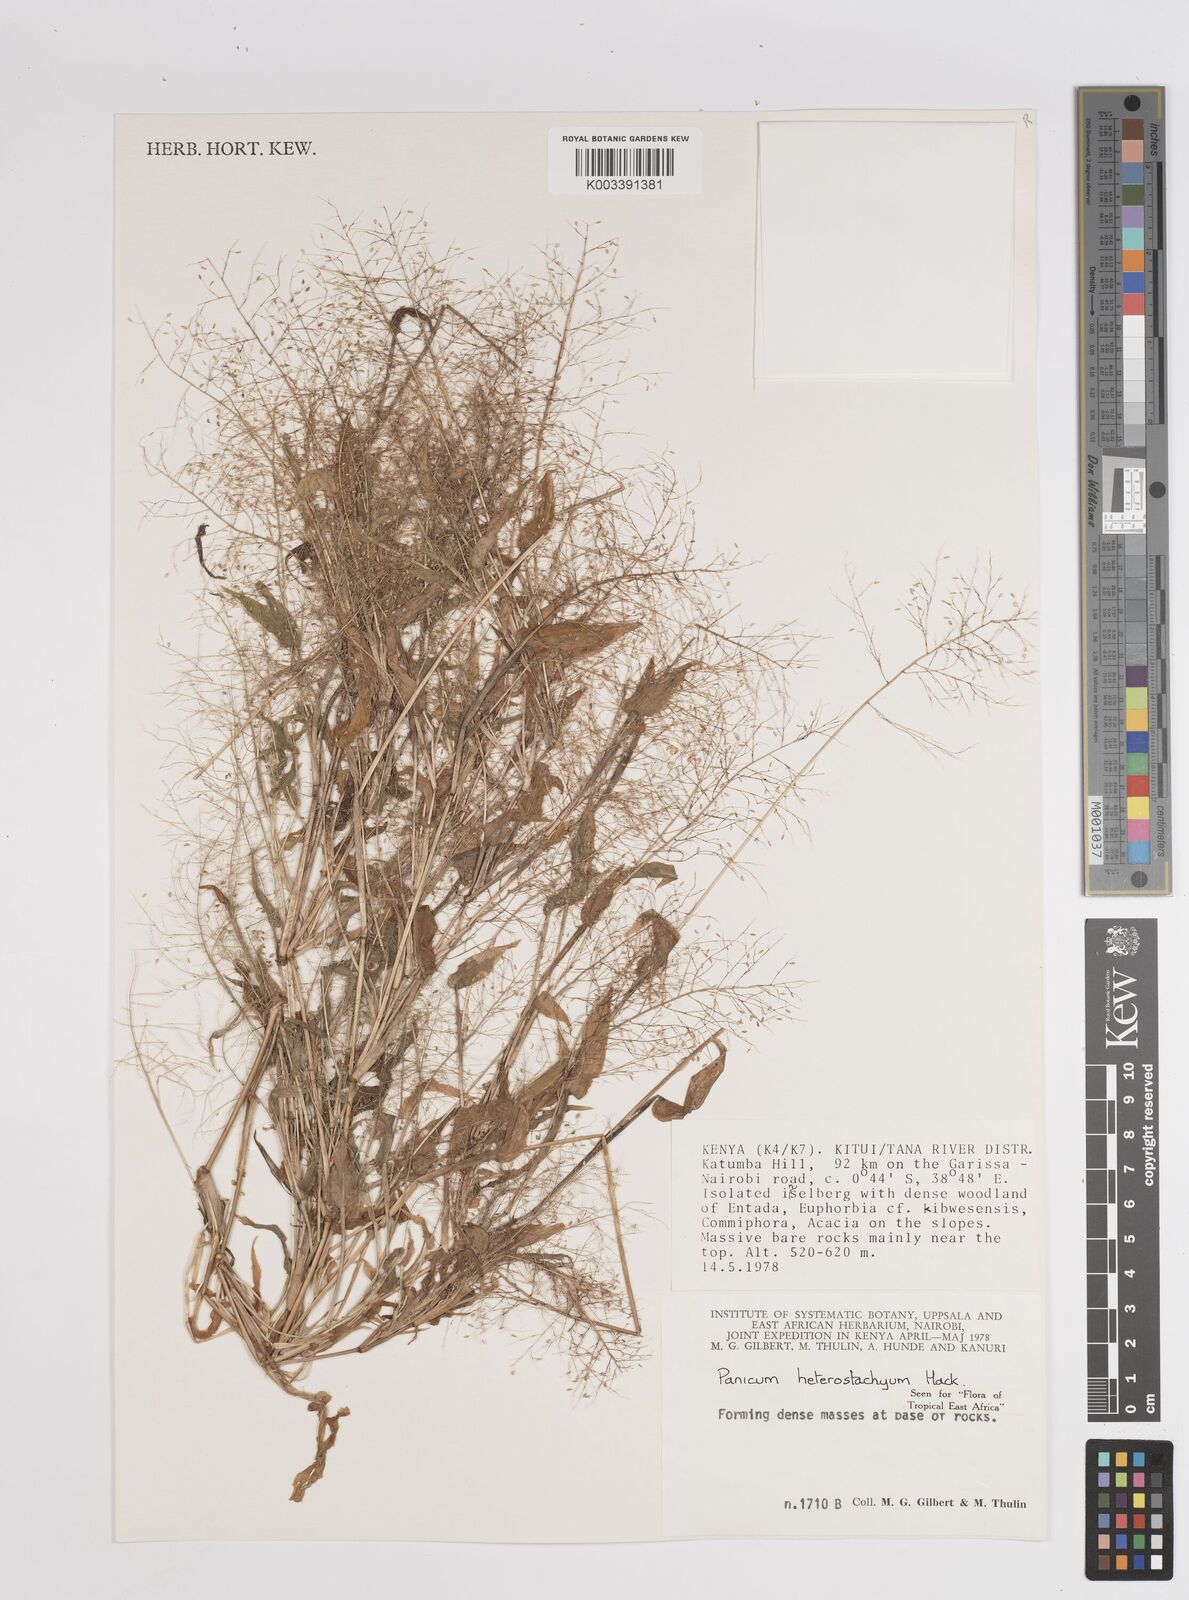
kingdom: Plantae
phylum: Tracheophyta
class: Liliopsida
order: Poales
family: Poaceae
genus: Panicum
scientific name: Panicum hirtum
